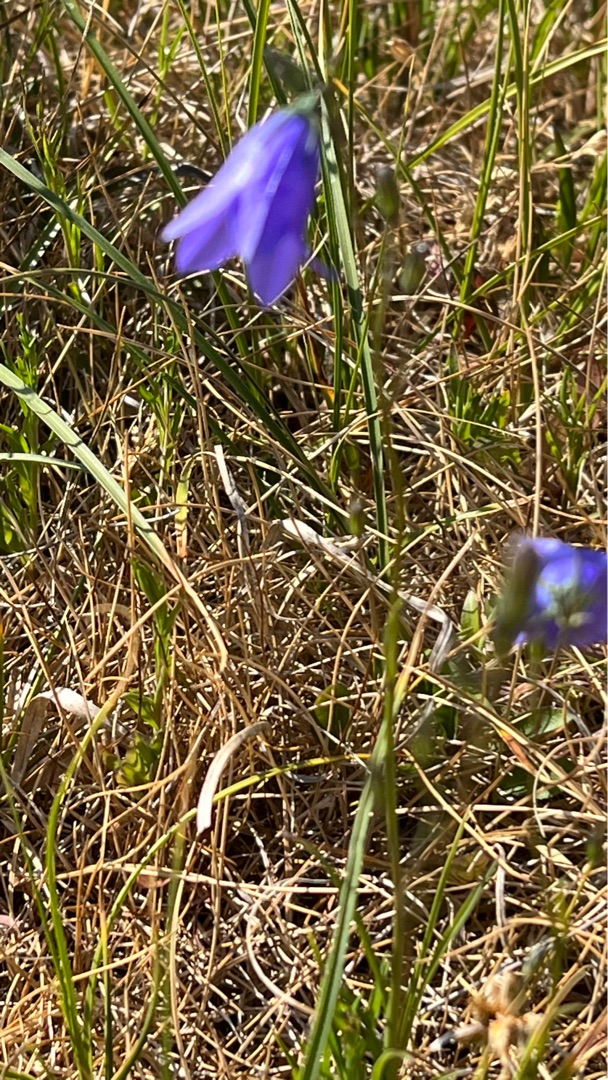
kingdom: Plantae
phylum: Tracheophyta
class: Magnoliopsida
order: Asterales
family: Campanulaceae
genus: Campanula
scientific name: Campanula rotundifolia
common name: Liden klokke
